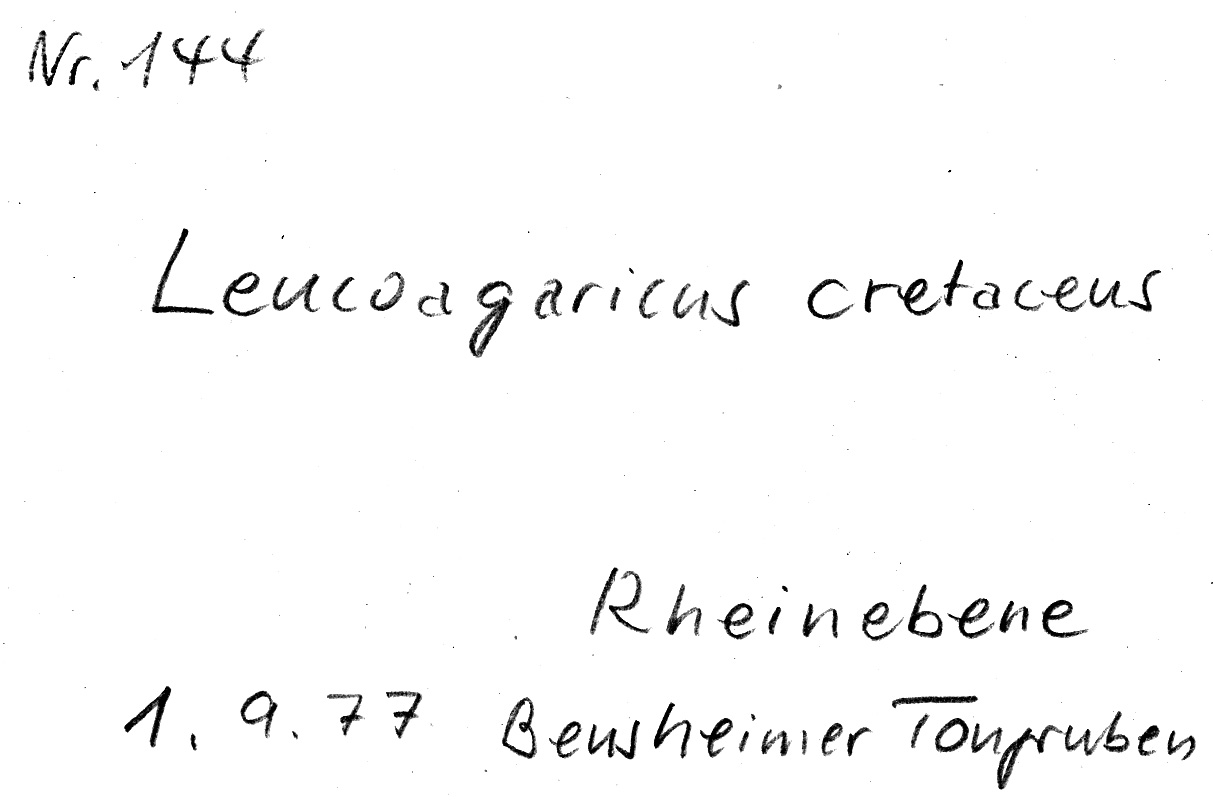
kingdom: Fungi
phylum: Basidiomycota
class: Agaricomycetes
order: Agaricales
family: Agaricaceae
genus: Leucocoprinus
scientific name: Leucocoprinus cretaceus
